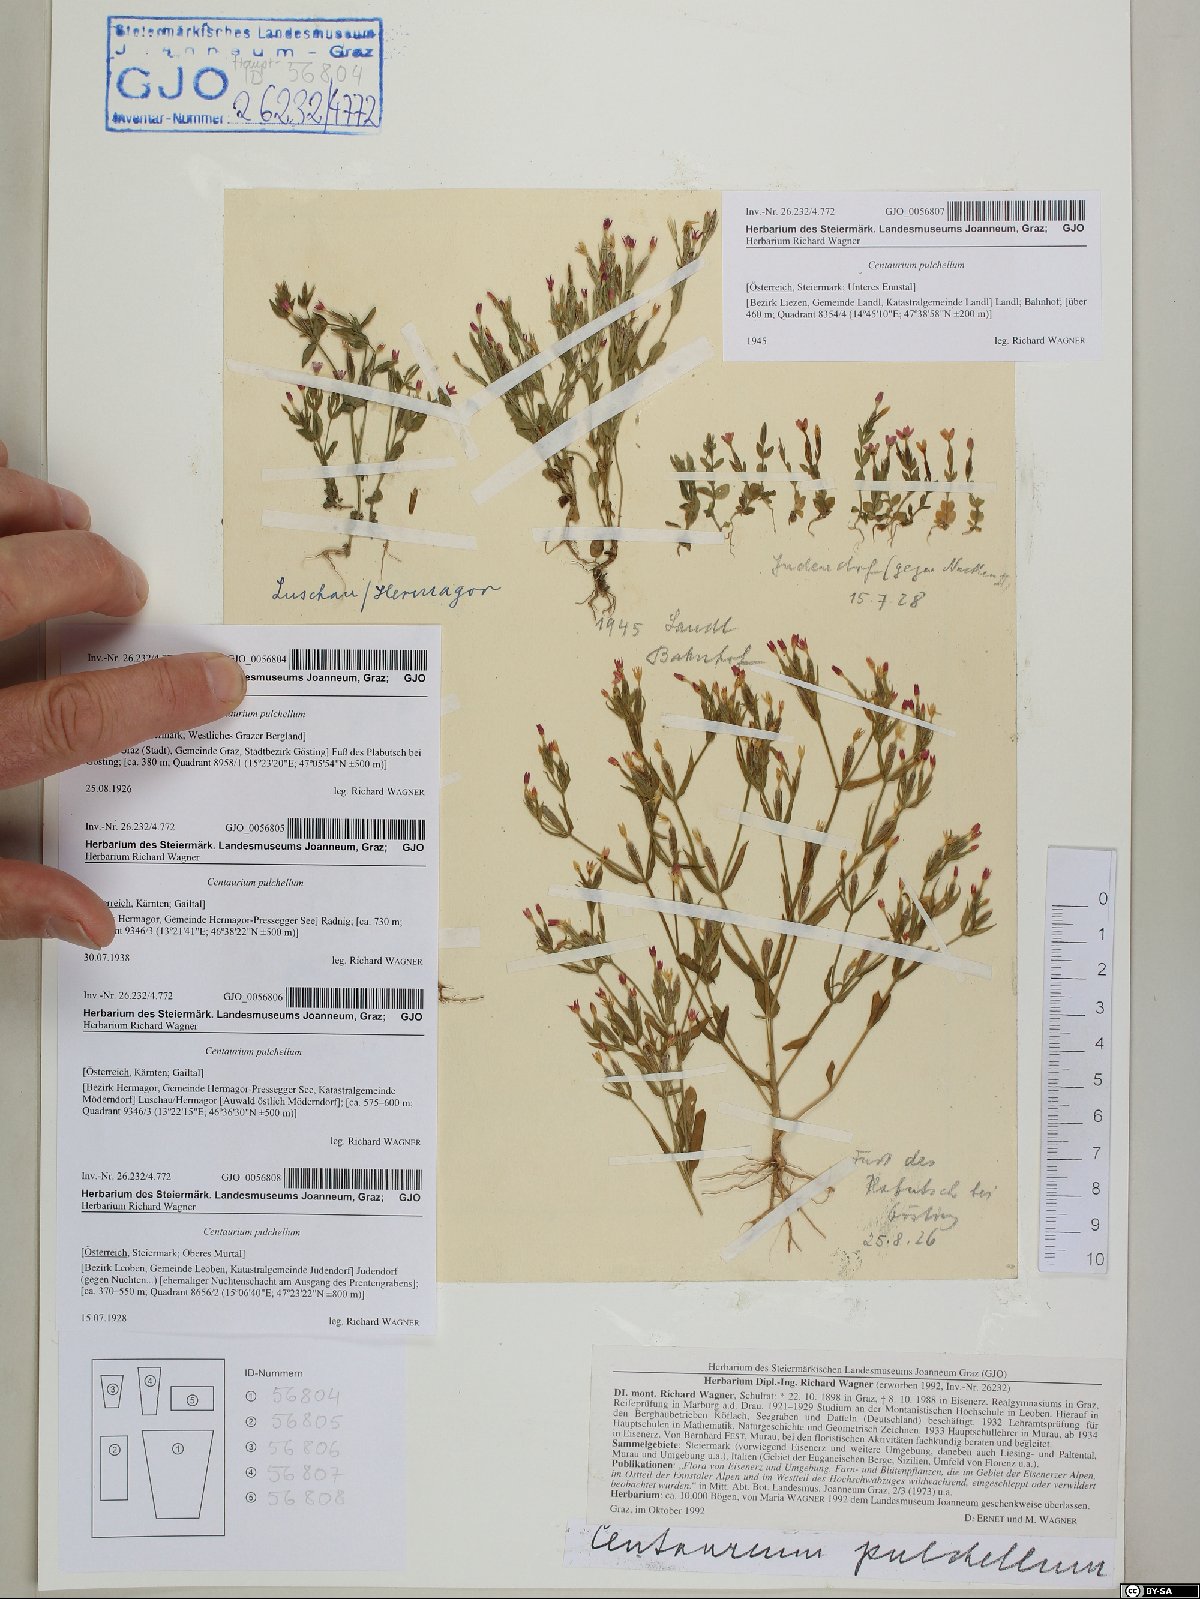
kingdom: Plantae
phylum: Tracheophyta
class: Magnoliopsida
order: Gentianales
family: Gentianaceae
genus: Centaurium
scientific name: Centaurium pulchellum
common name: Lesser centaury
